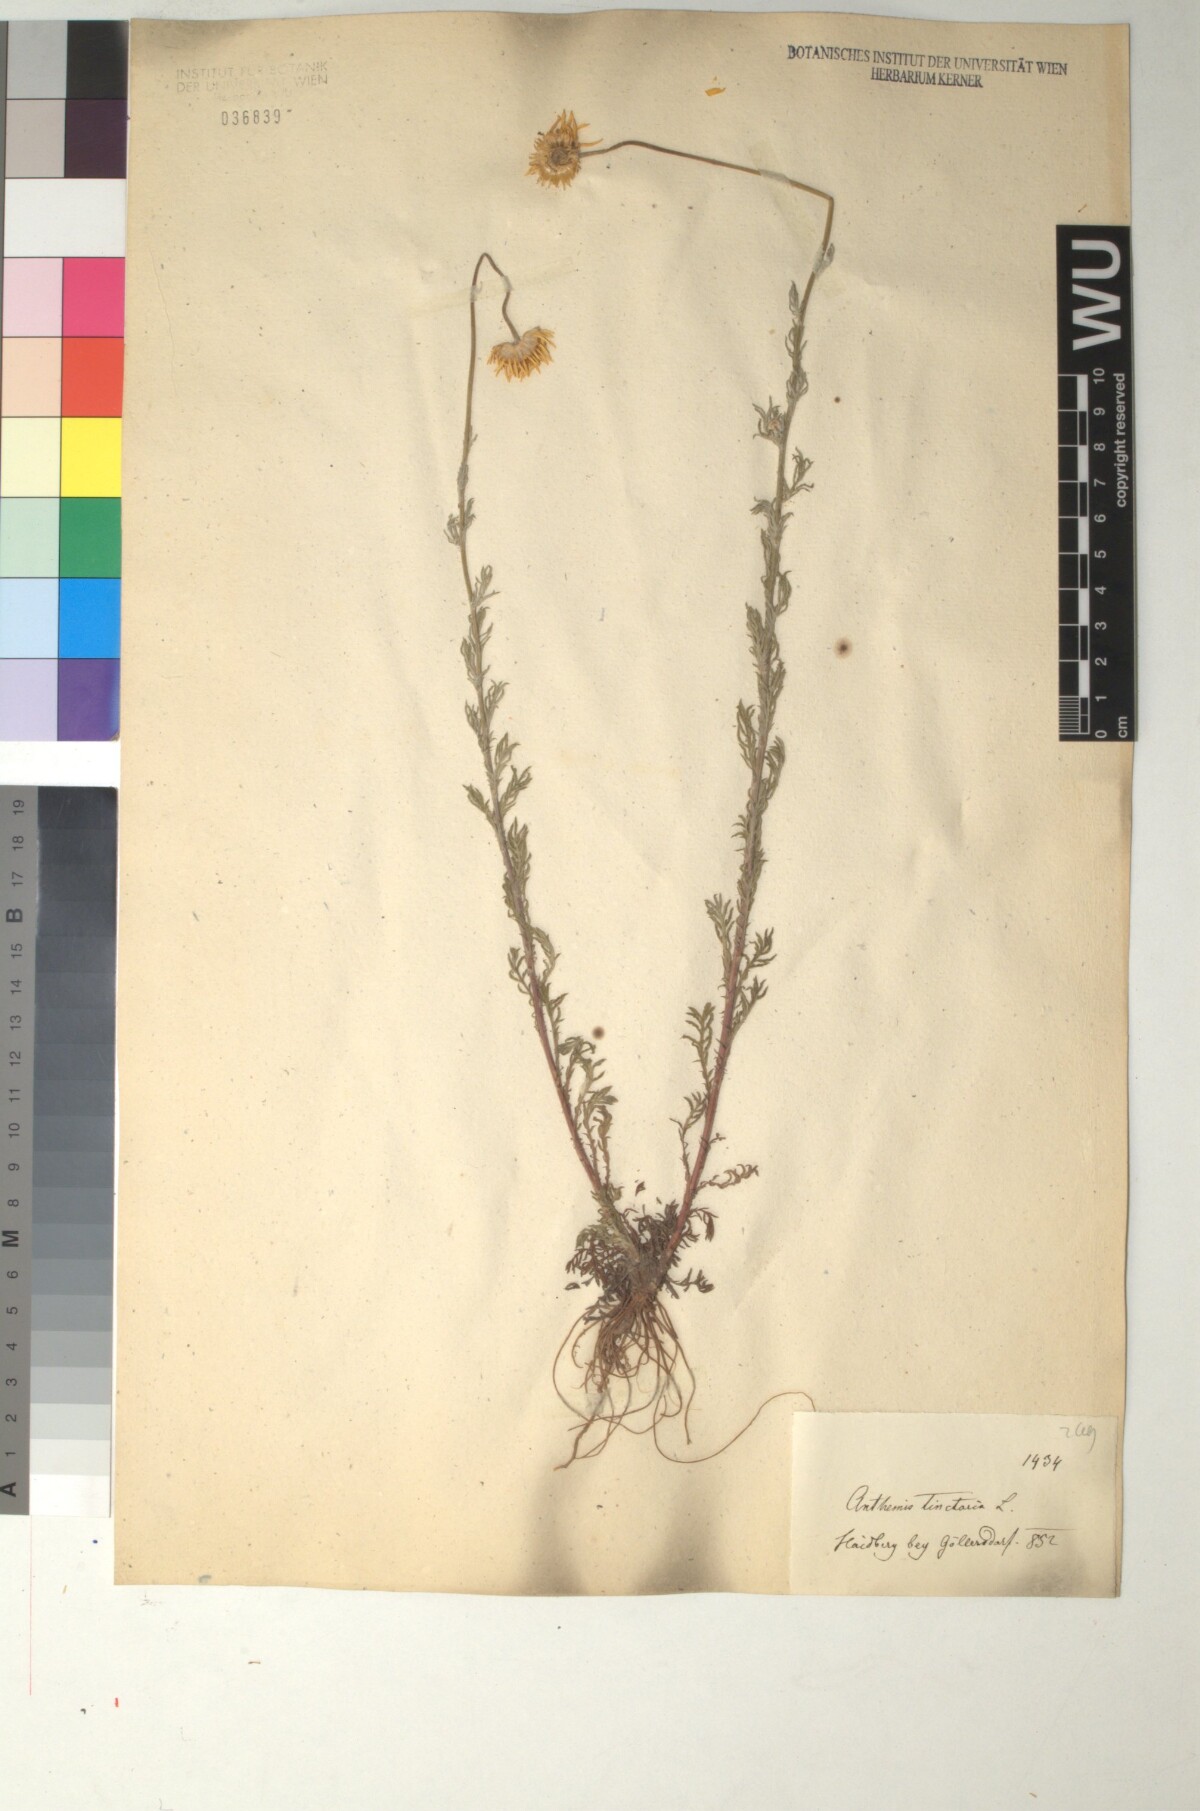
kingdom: Plantae
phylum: Tracheophyta
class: Magnoliopsida
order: Asterales
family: Asteraceae
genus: Cota
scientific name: Cota tinctoria
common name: Golden chamomile
